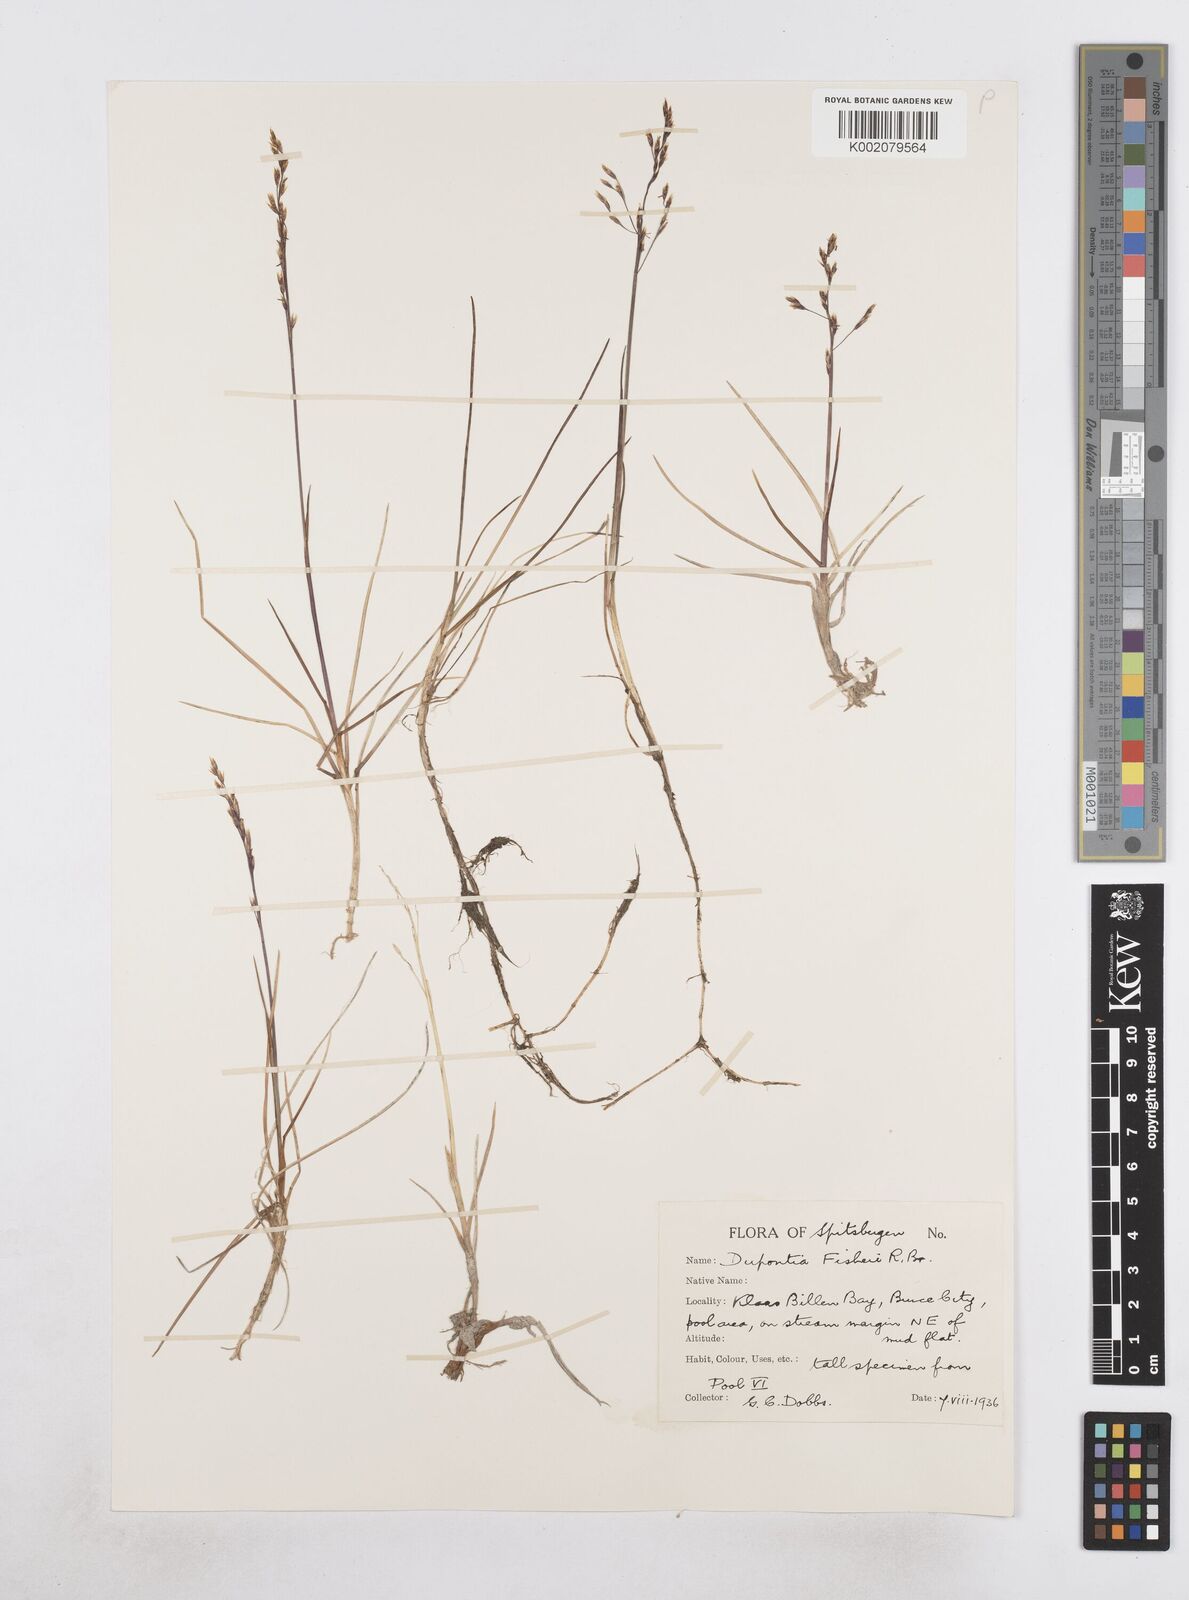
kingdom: Plantae
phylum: Tracheophyta
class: Liliopsida
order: Poales
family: Poaceae
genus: Dupontia
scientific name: Dupontia fisheri
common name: Tundra grass
